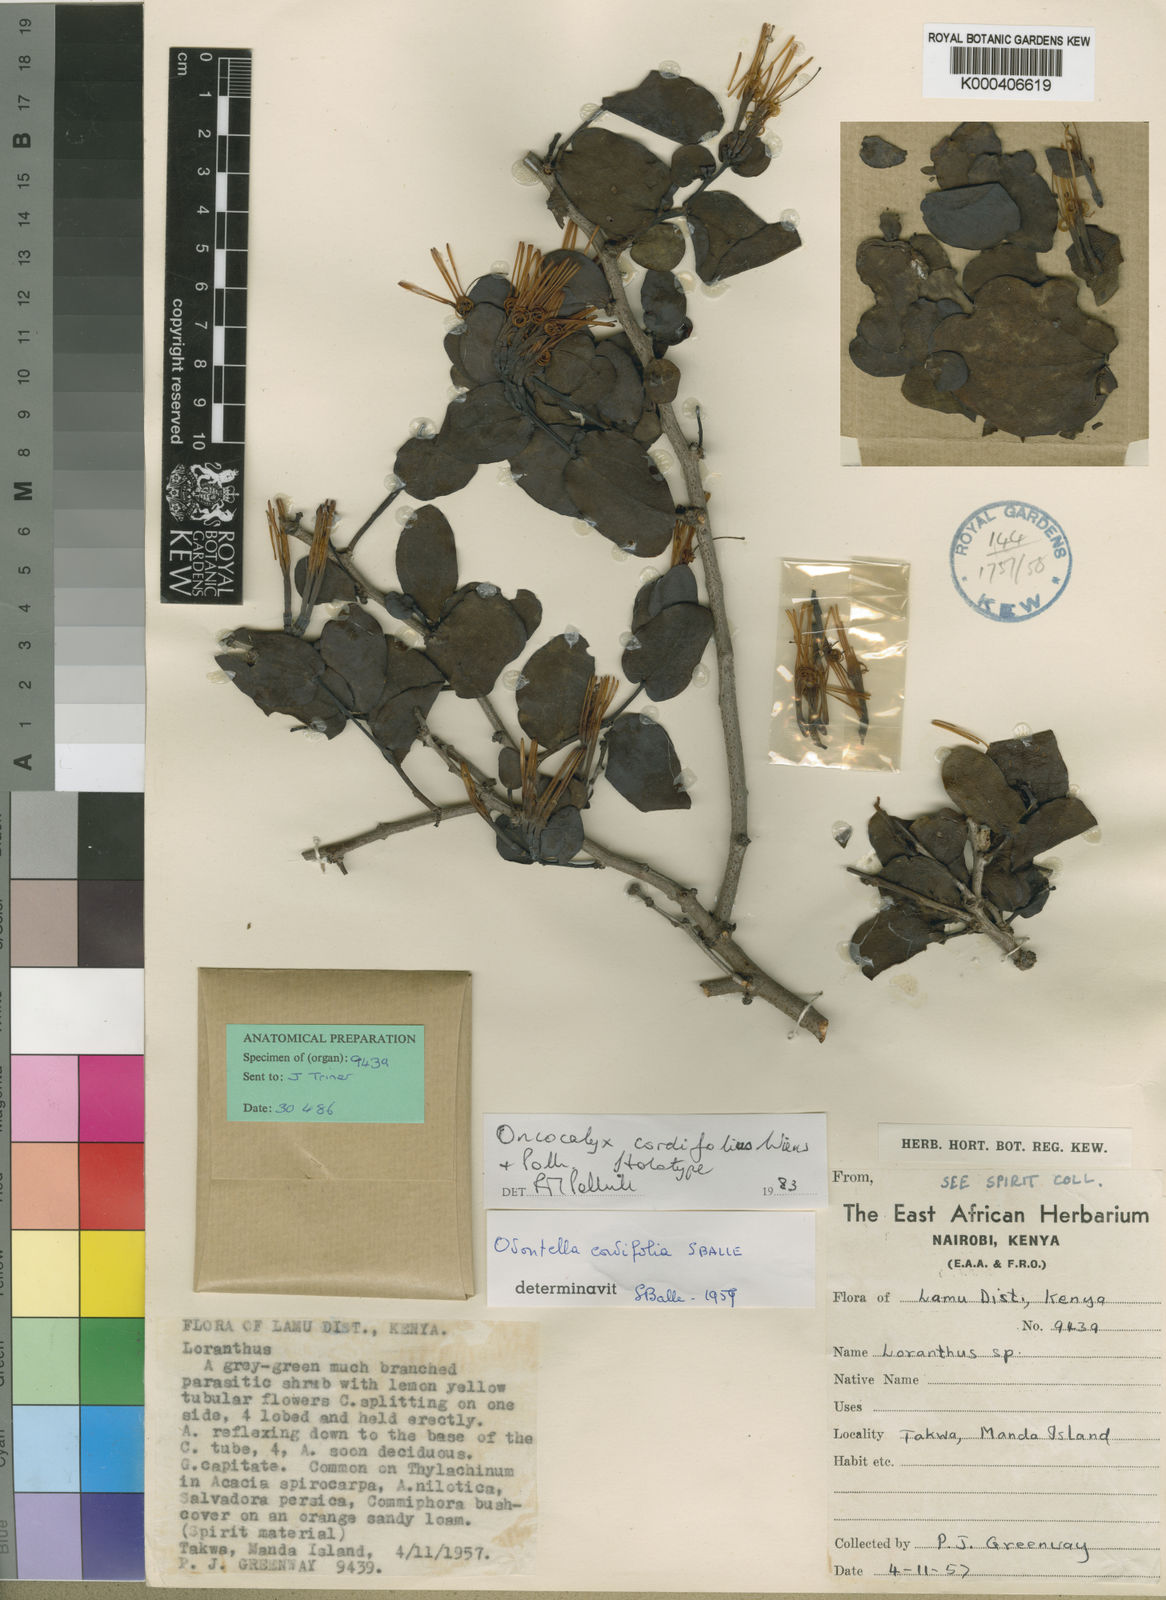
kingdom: Plantae
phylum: Tracheophyta
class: Magnoliopsida
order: Santalales
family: Loranthaceae
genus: Oncocalyx
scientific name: Oncocalyx cordifolius
